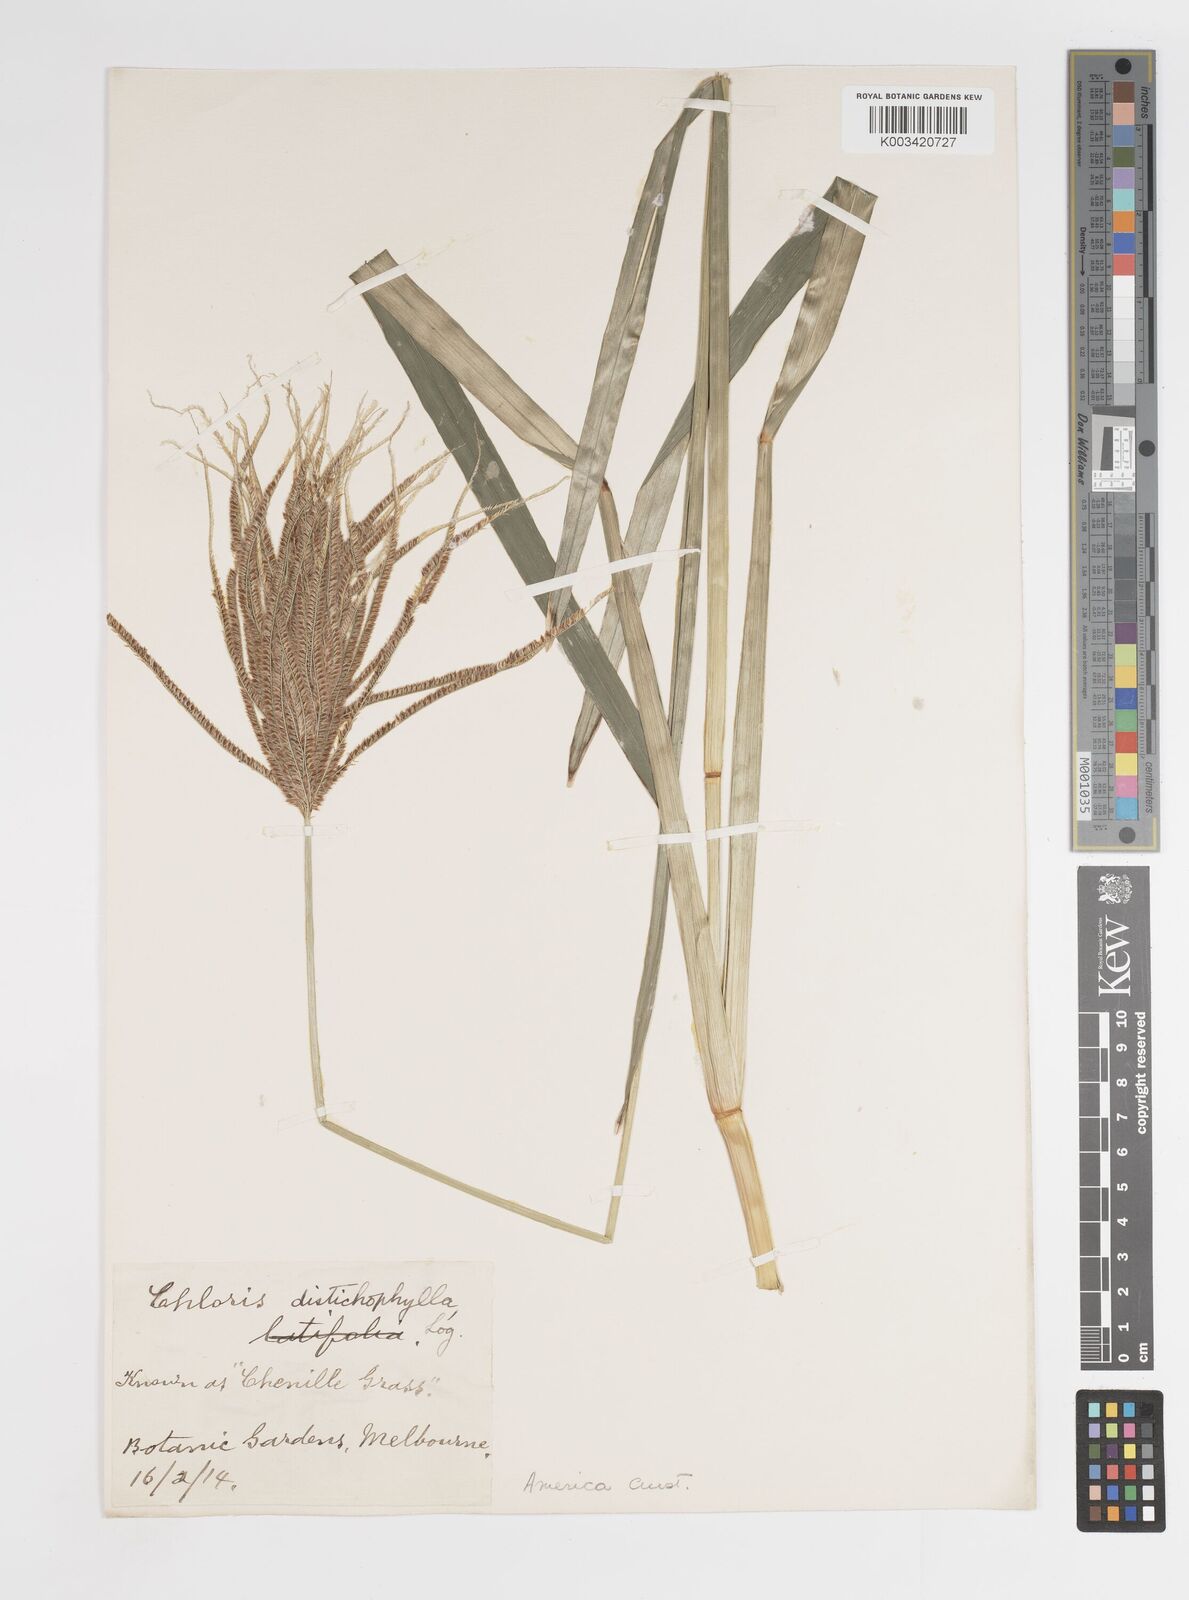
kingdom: Plantae
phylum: Tracheophyta
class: Liliopsida
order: Poales
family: Poaceae
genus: Eustachys
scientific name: Eustachys distichophylla
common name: Weeping fingergrass
